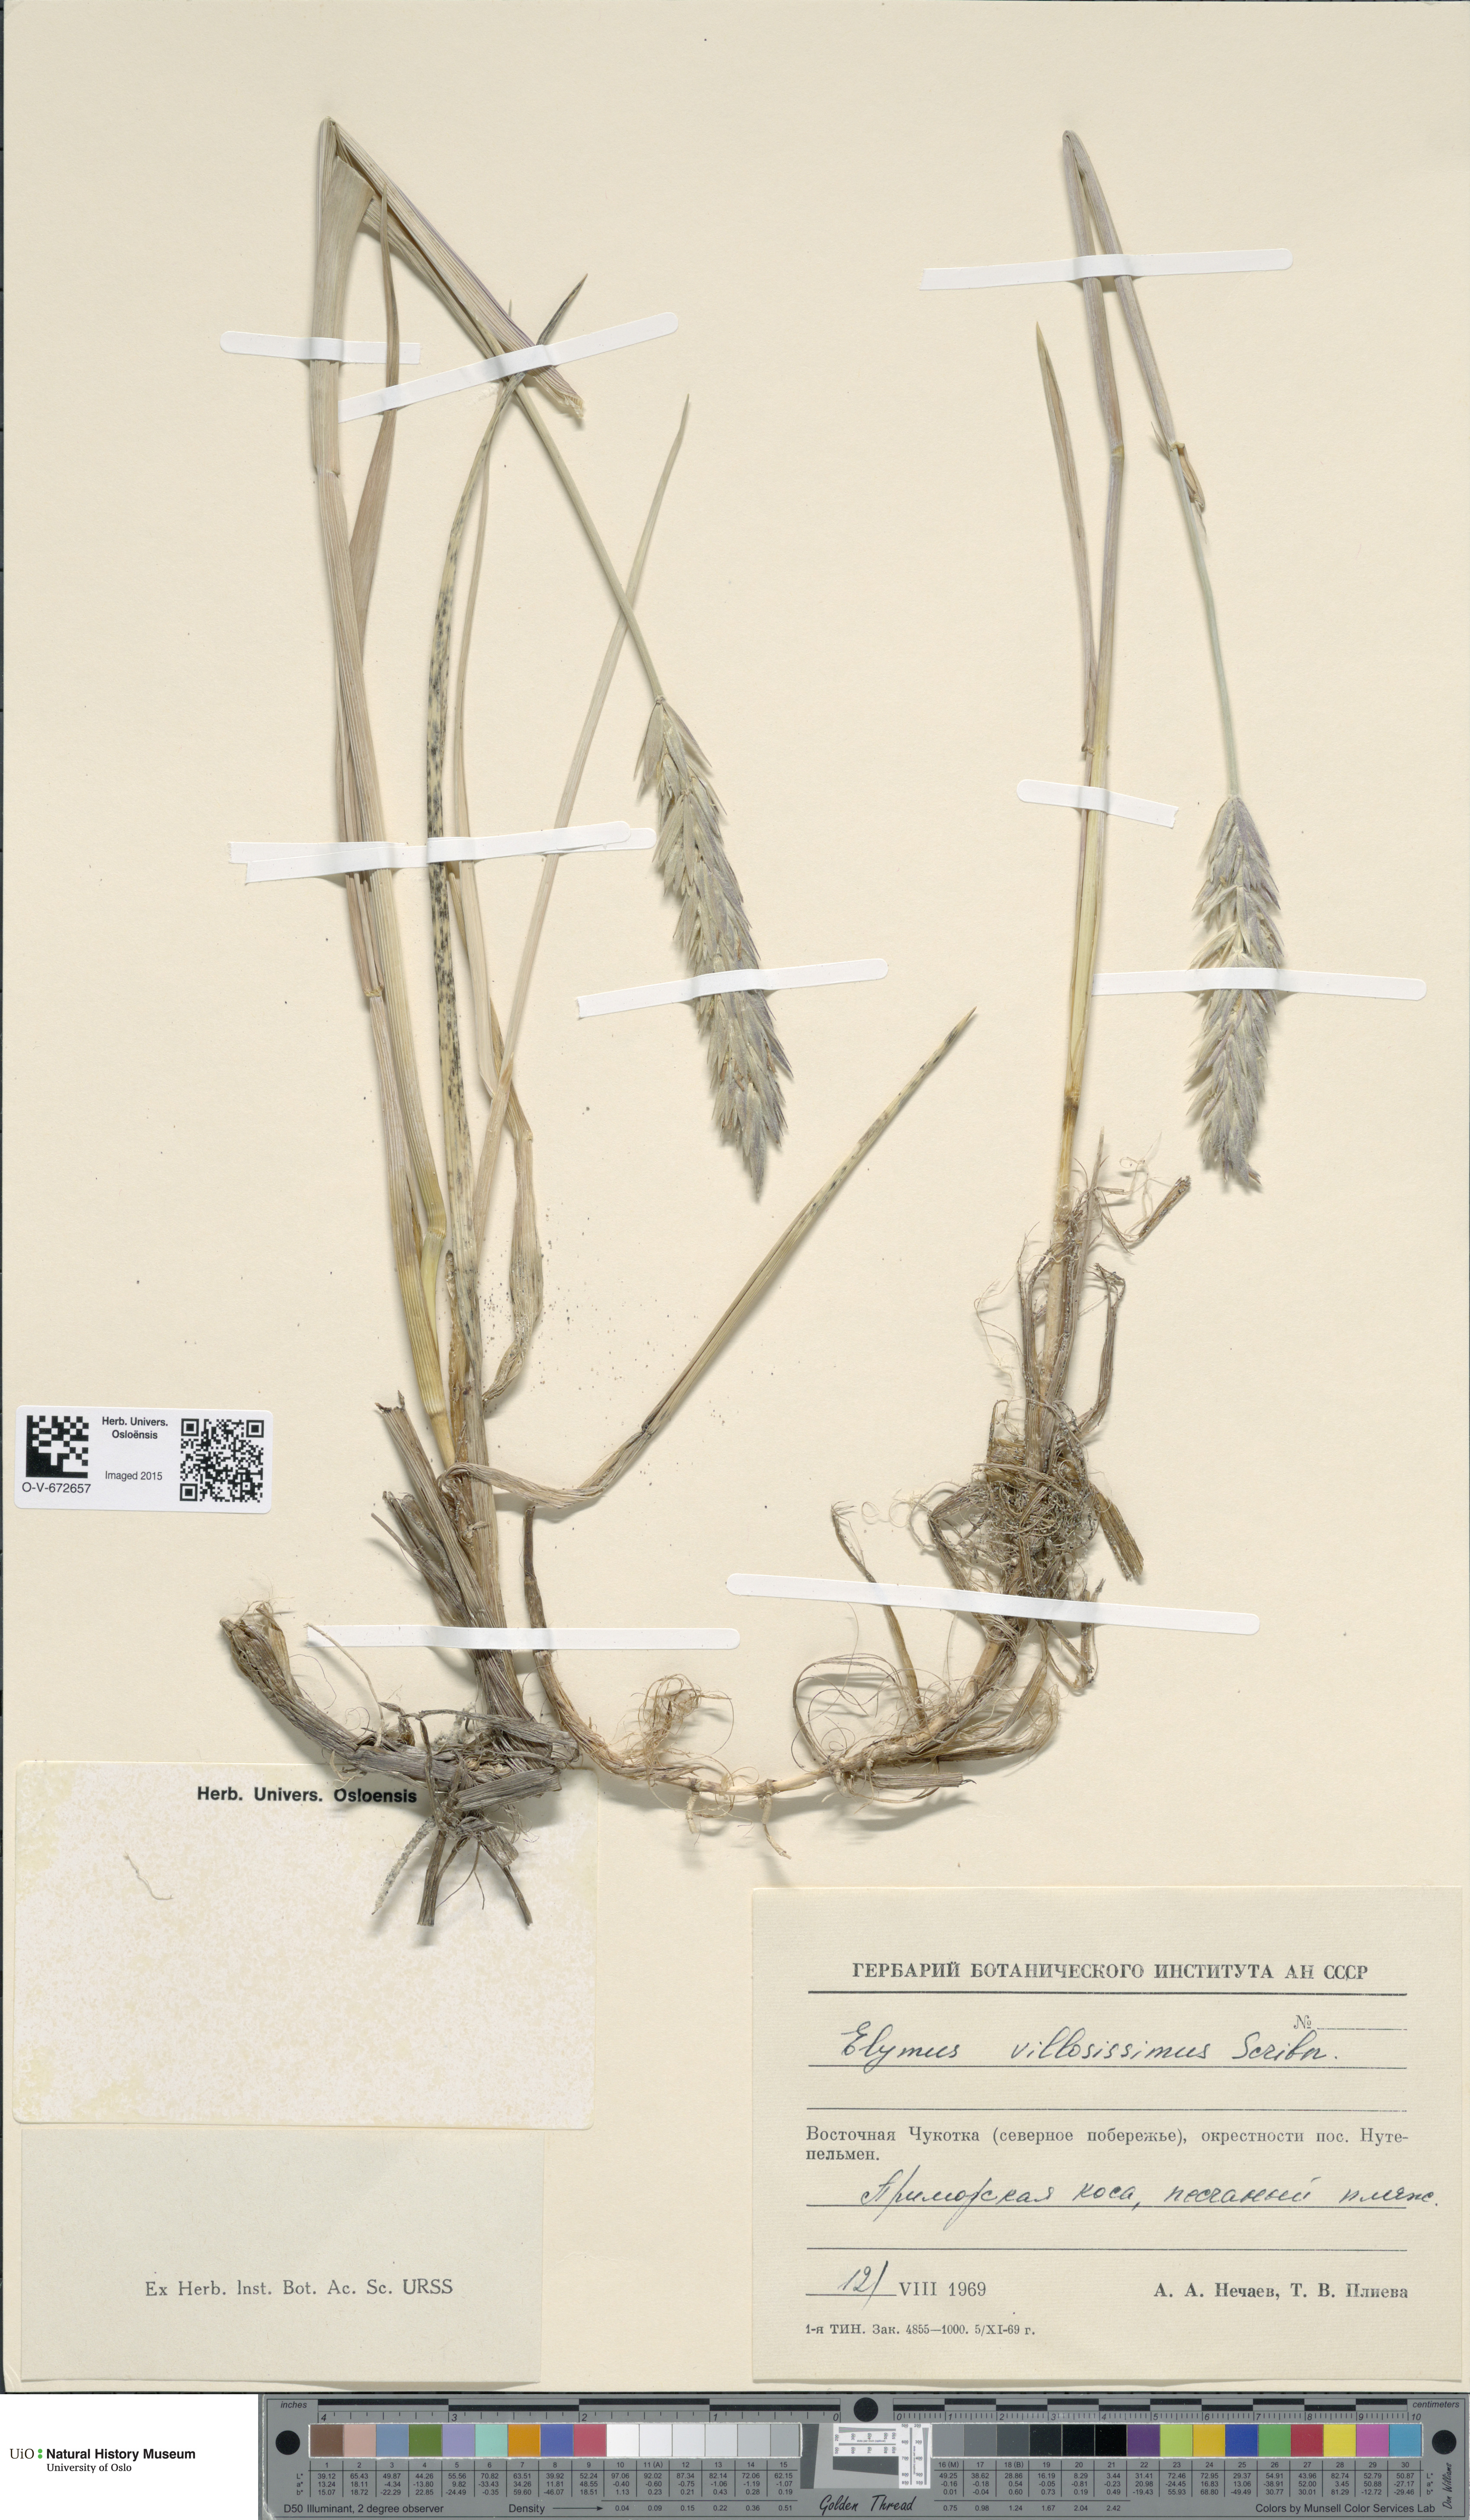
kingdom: Plantae
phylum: Tracheophyta
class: Liliopsida
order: Poales
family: Poaceae
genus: Leymus
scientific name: Leymus villosissimus
